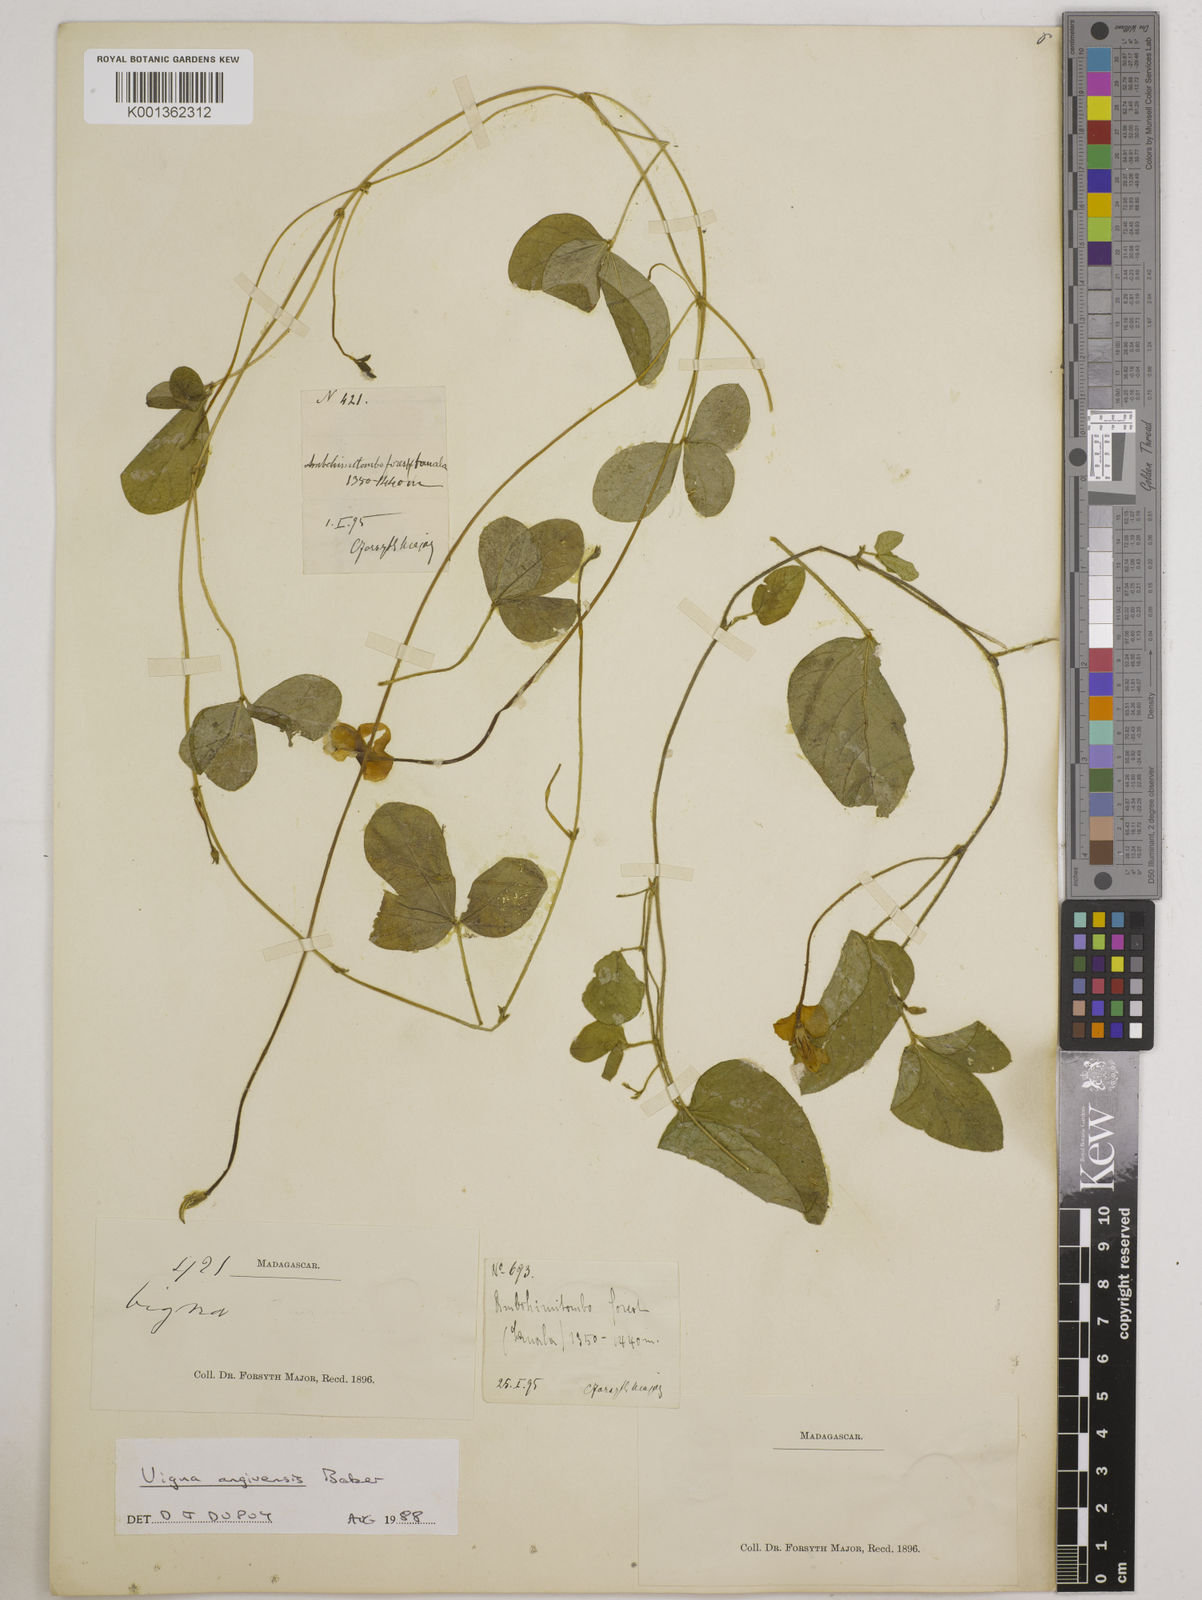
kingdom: Plantae
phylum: Tracheophyta
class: Magnoliopsida
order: Fabales
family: Fabaceae
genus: Vigna
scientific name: Vigna angivensis
